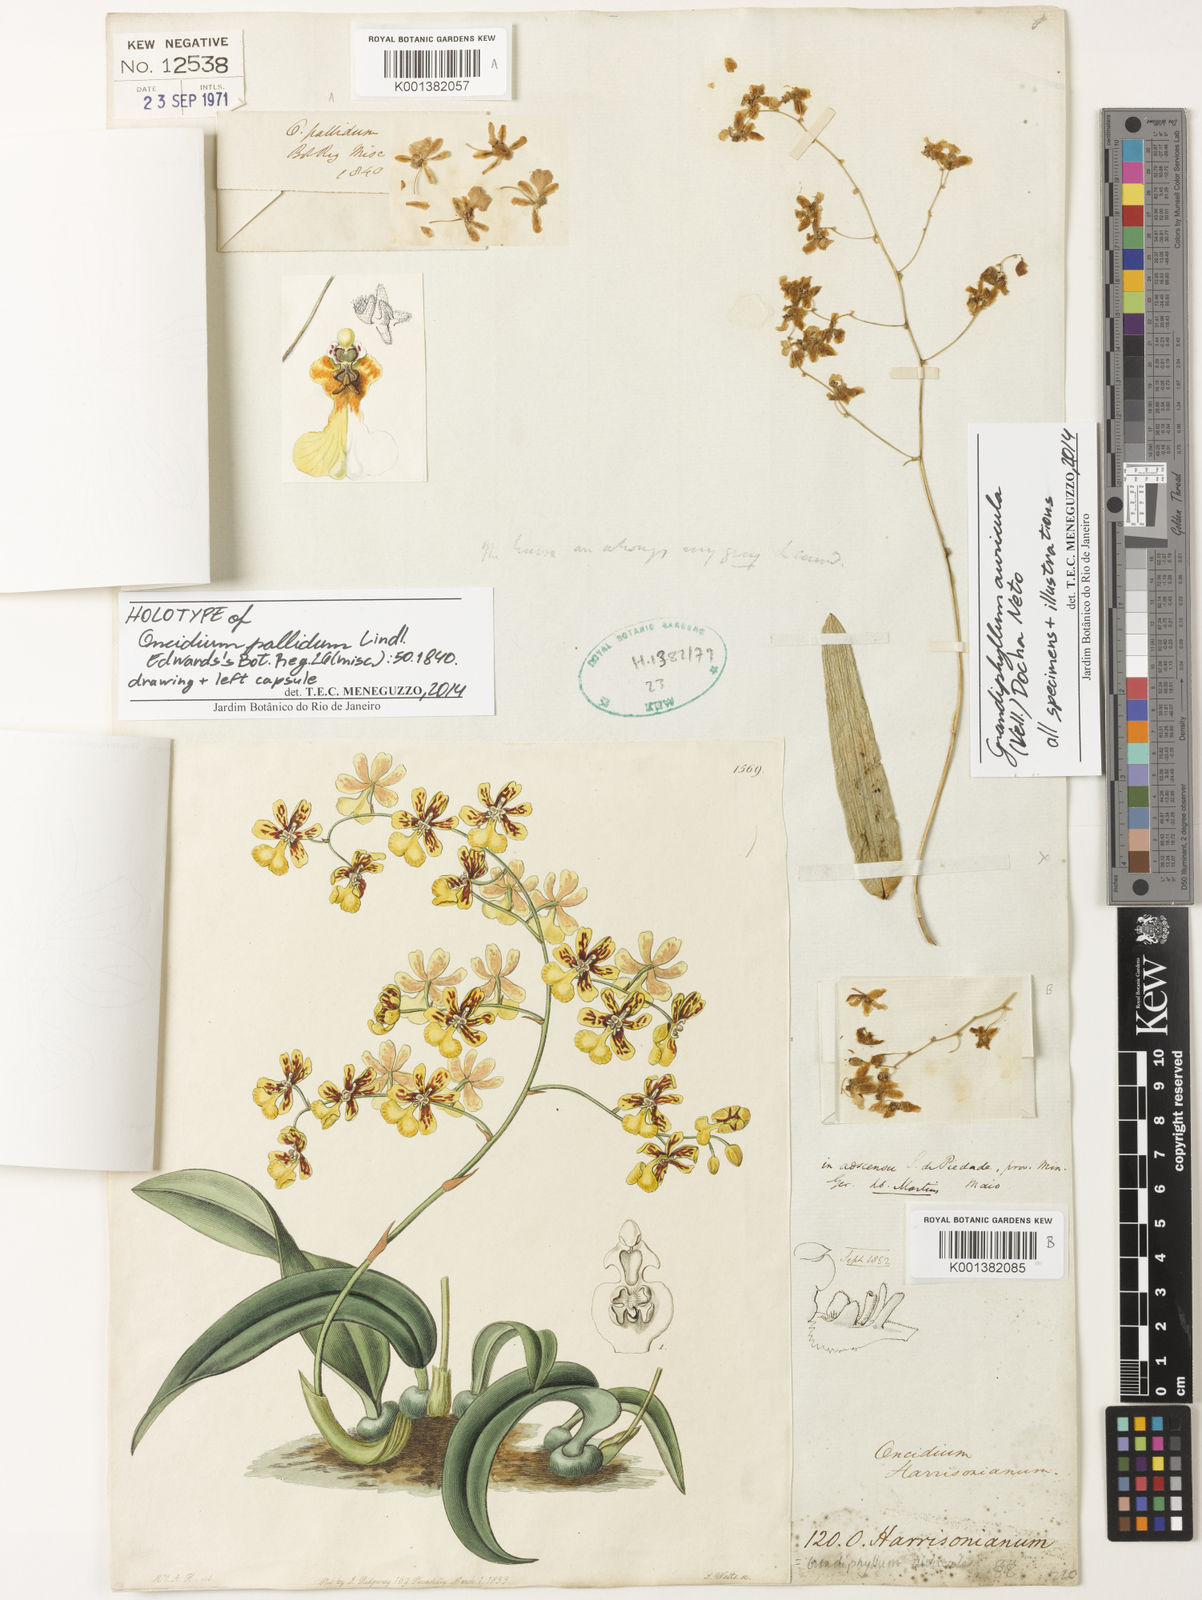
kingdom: Plantae
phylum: Tracheophyta
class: Liliopsida
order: Asparagales
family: Orchidaceae
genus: Grandiphyllum
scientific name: Grandiphyllum auricula
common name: Mule-ear orchid
